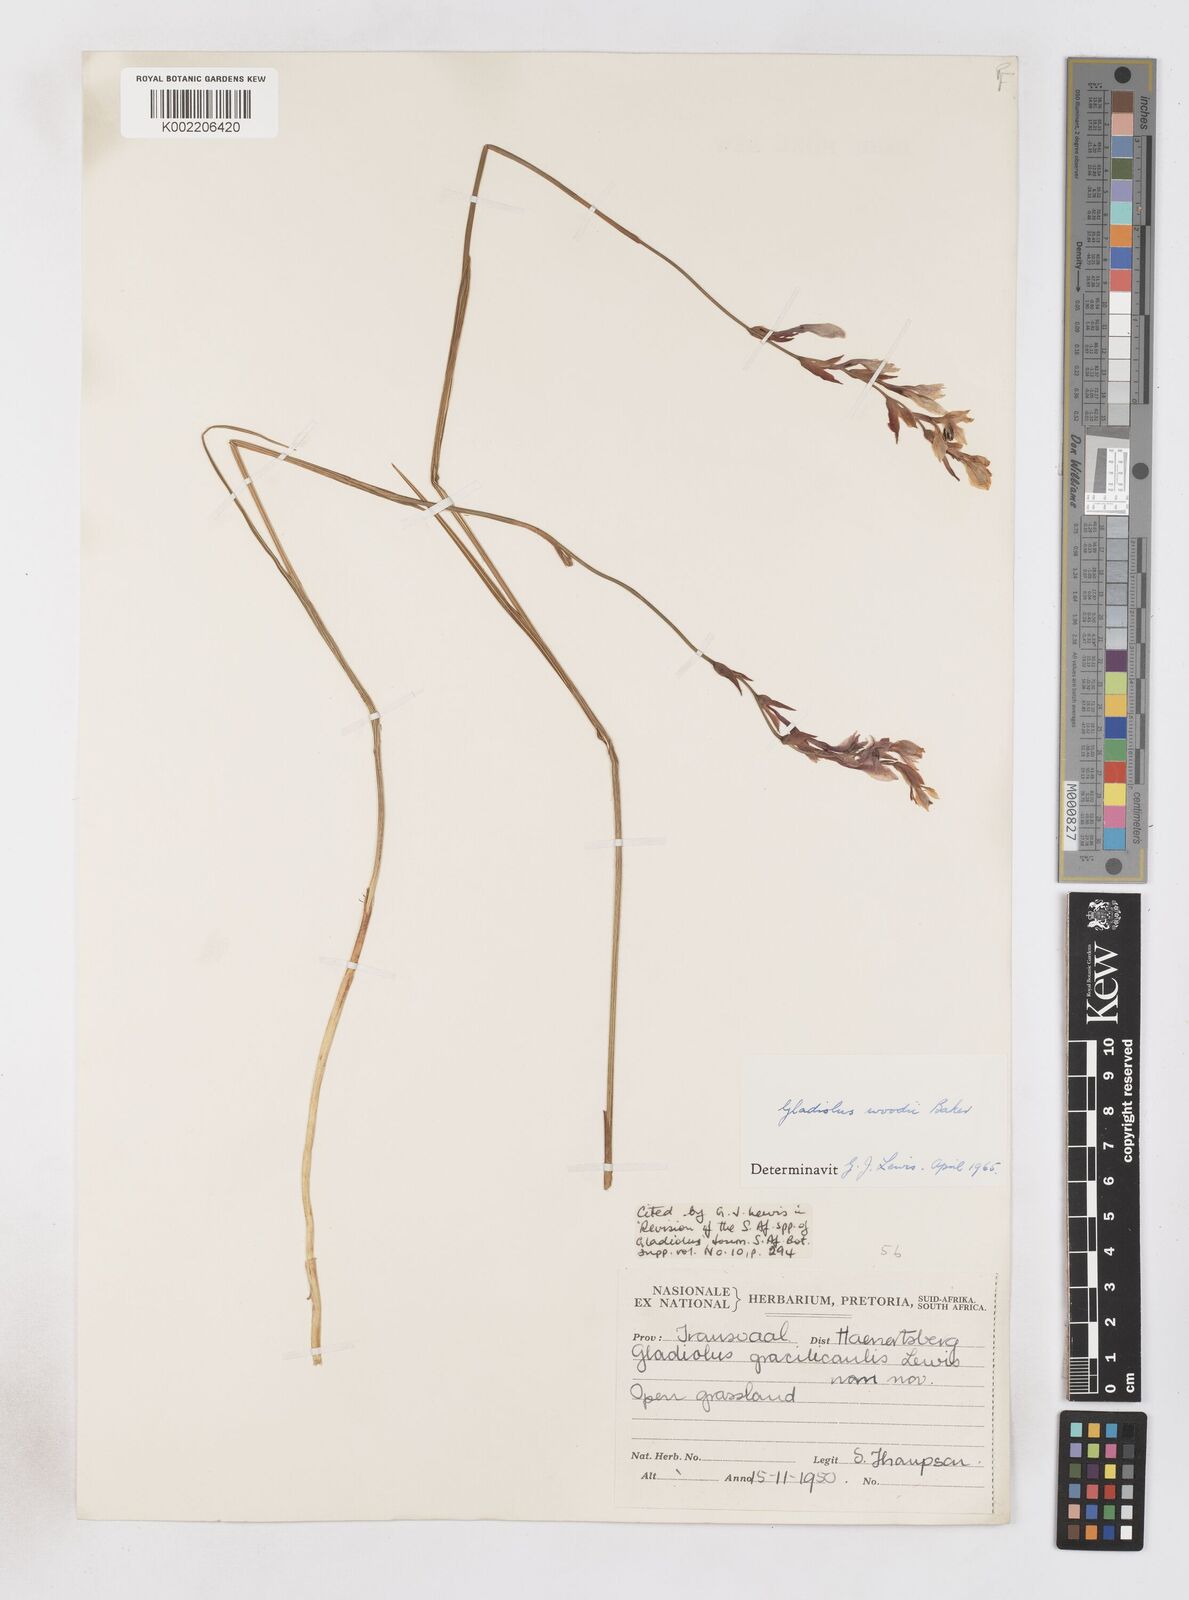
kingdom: Plantae
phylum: Tracheophyta
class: Liliopsida
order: Asparagales
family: Iridaceae
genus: Gladiolus
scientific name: Gladiolus woodii
